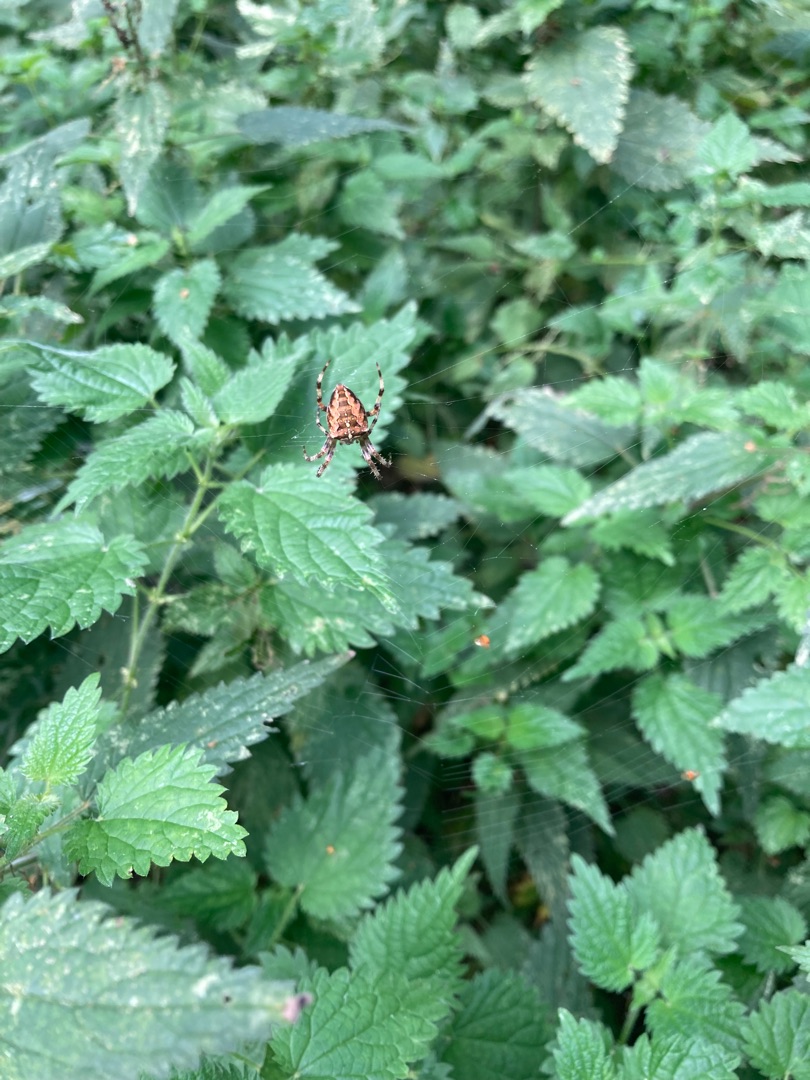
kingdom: Animalia
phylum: Arthropoda
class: Arachnida
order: Araneae
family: Araneidae
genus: Araneus
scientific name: Araneus diadematus
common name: Korsedderkop
